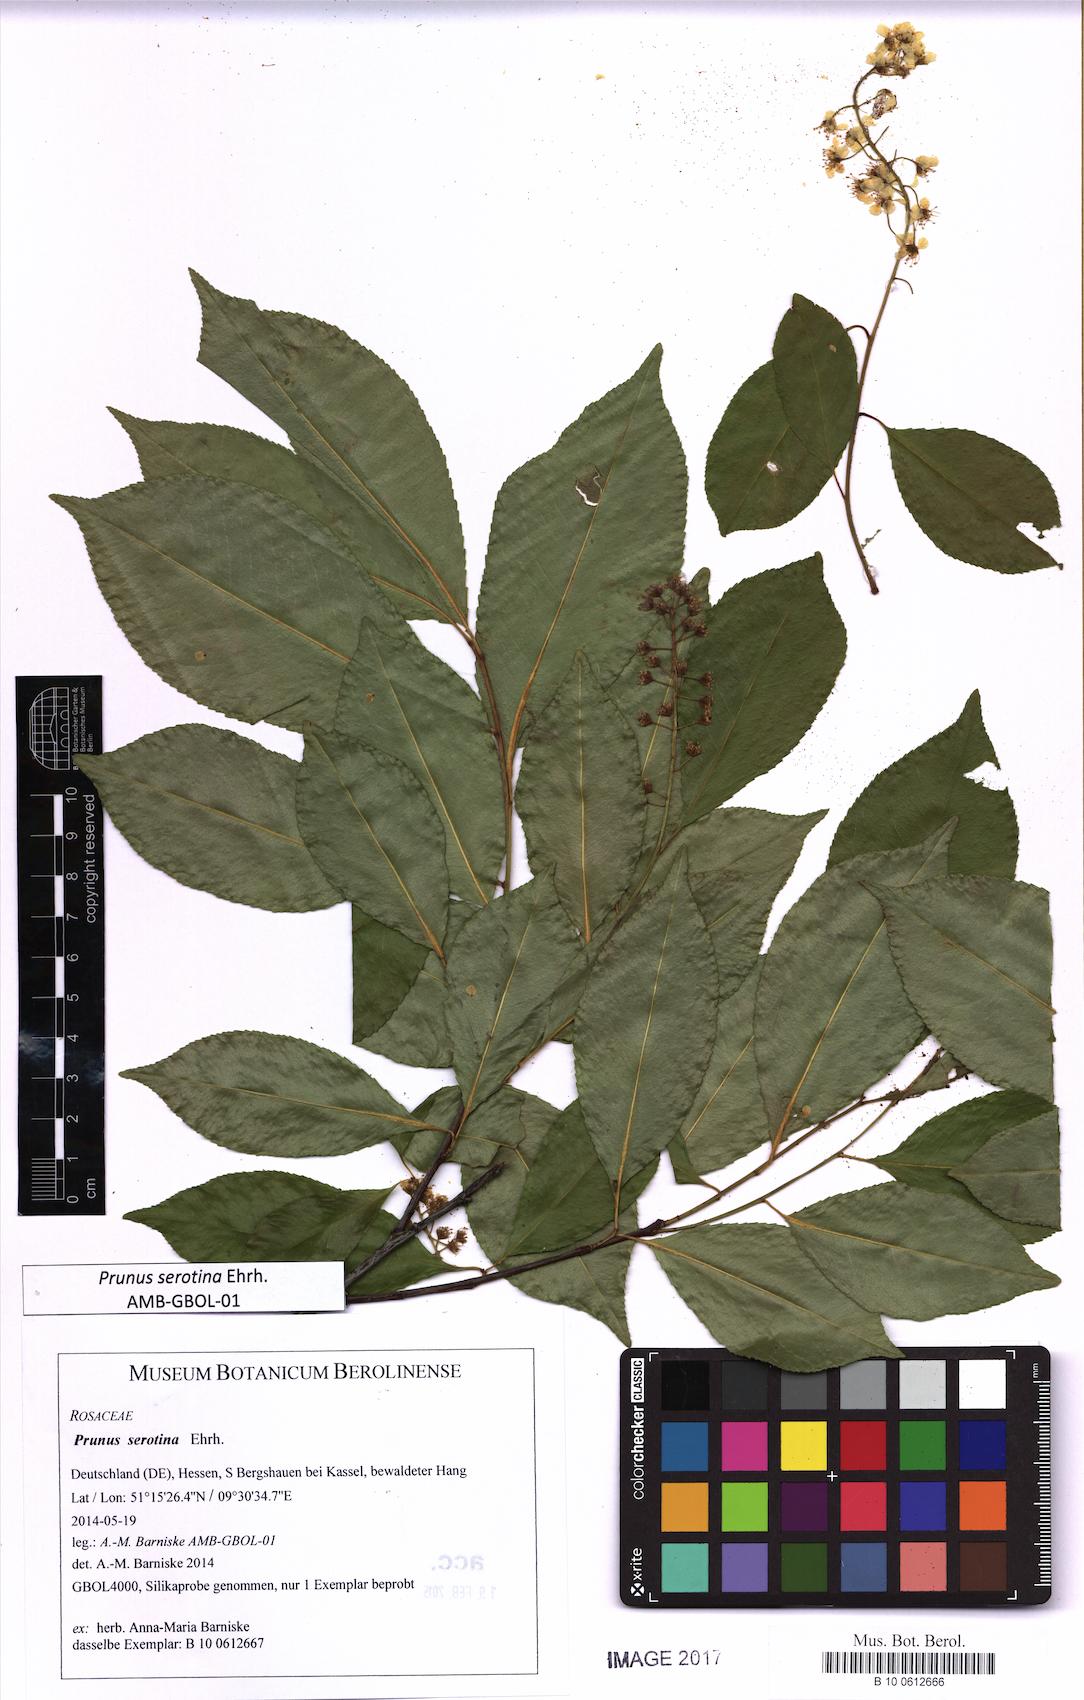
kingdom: Plantae
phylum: Tracheophyta
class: Magnoliopsida
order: Rosales
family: Rosaceae
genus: Prunus
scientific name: Prunus serotina
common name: Black cherry
